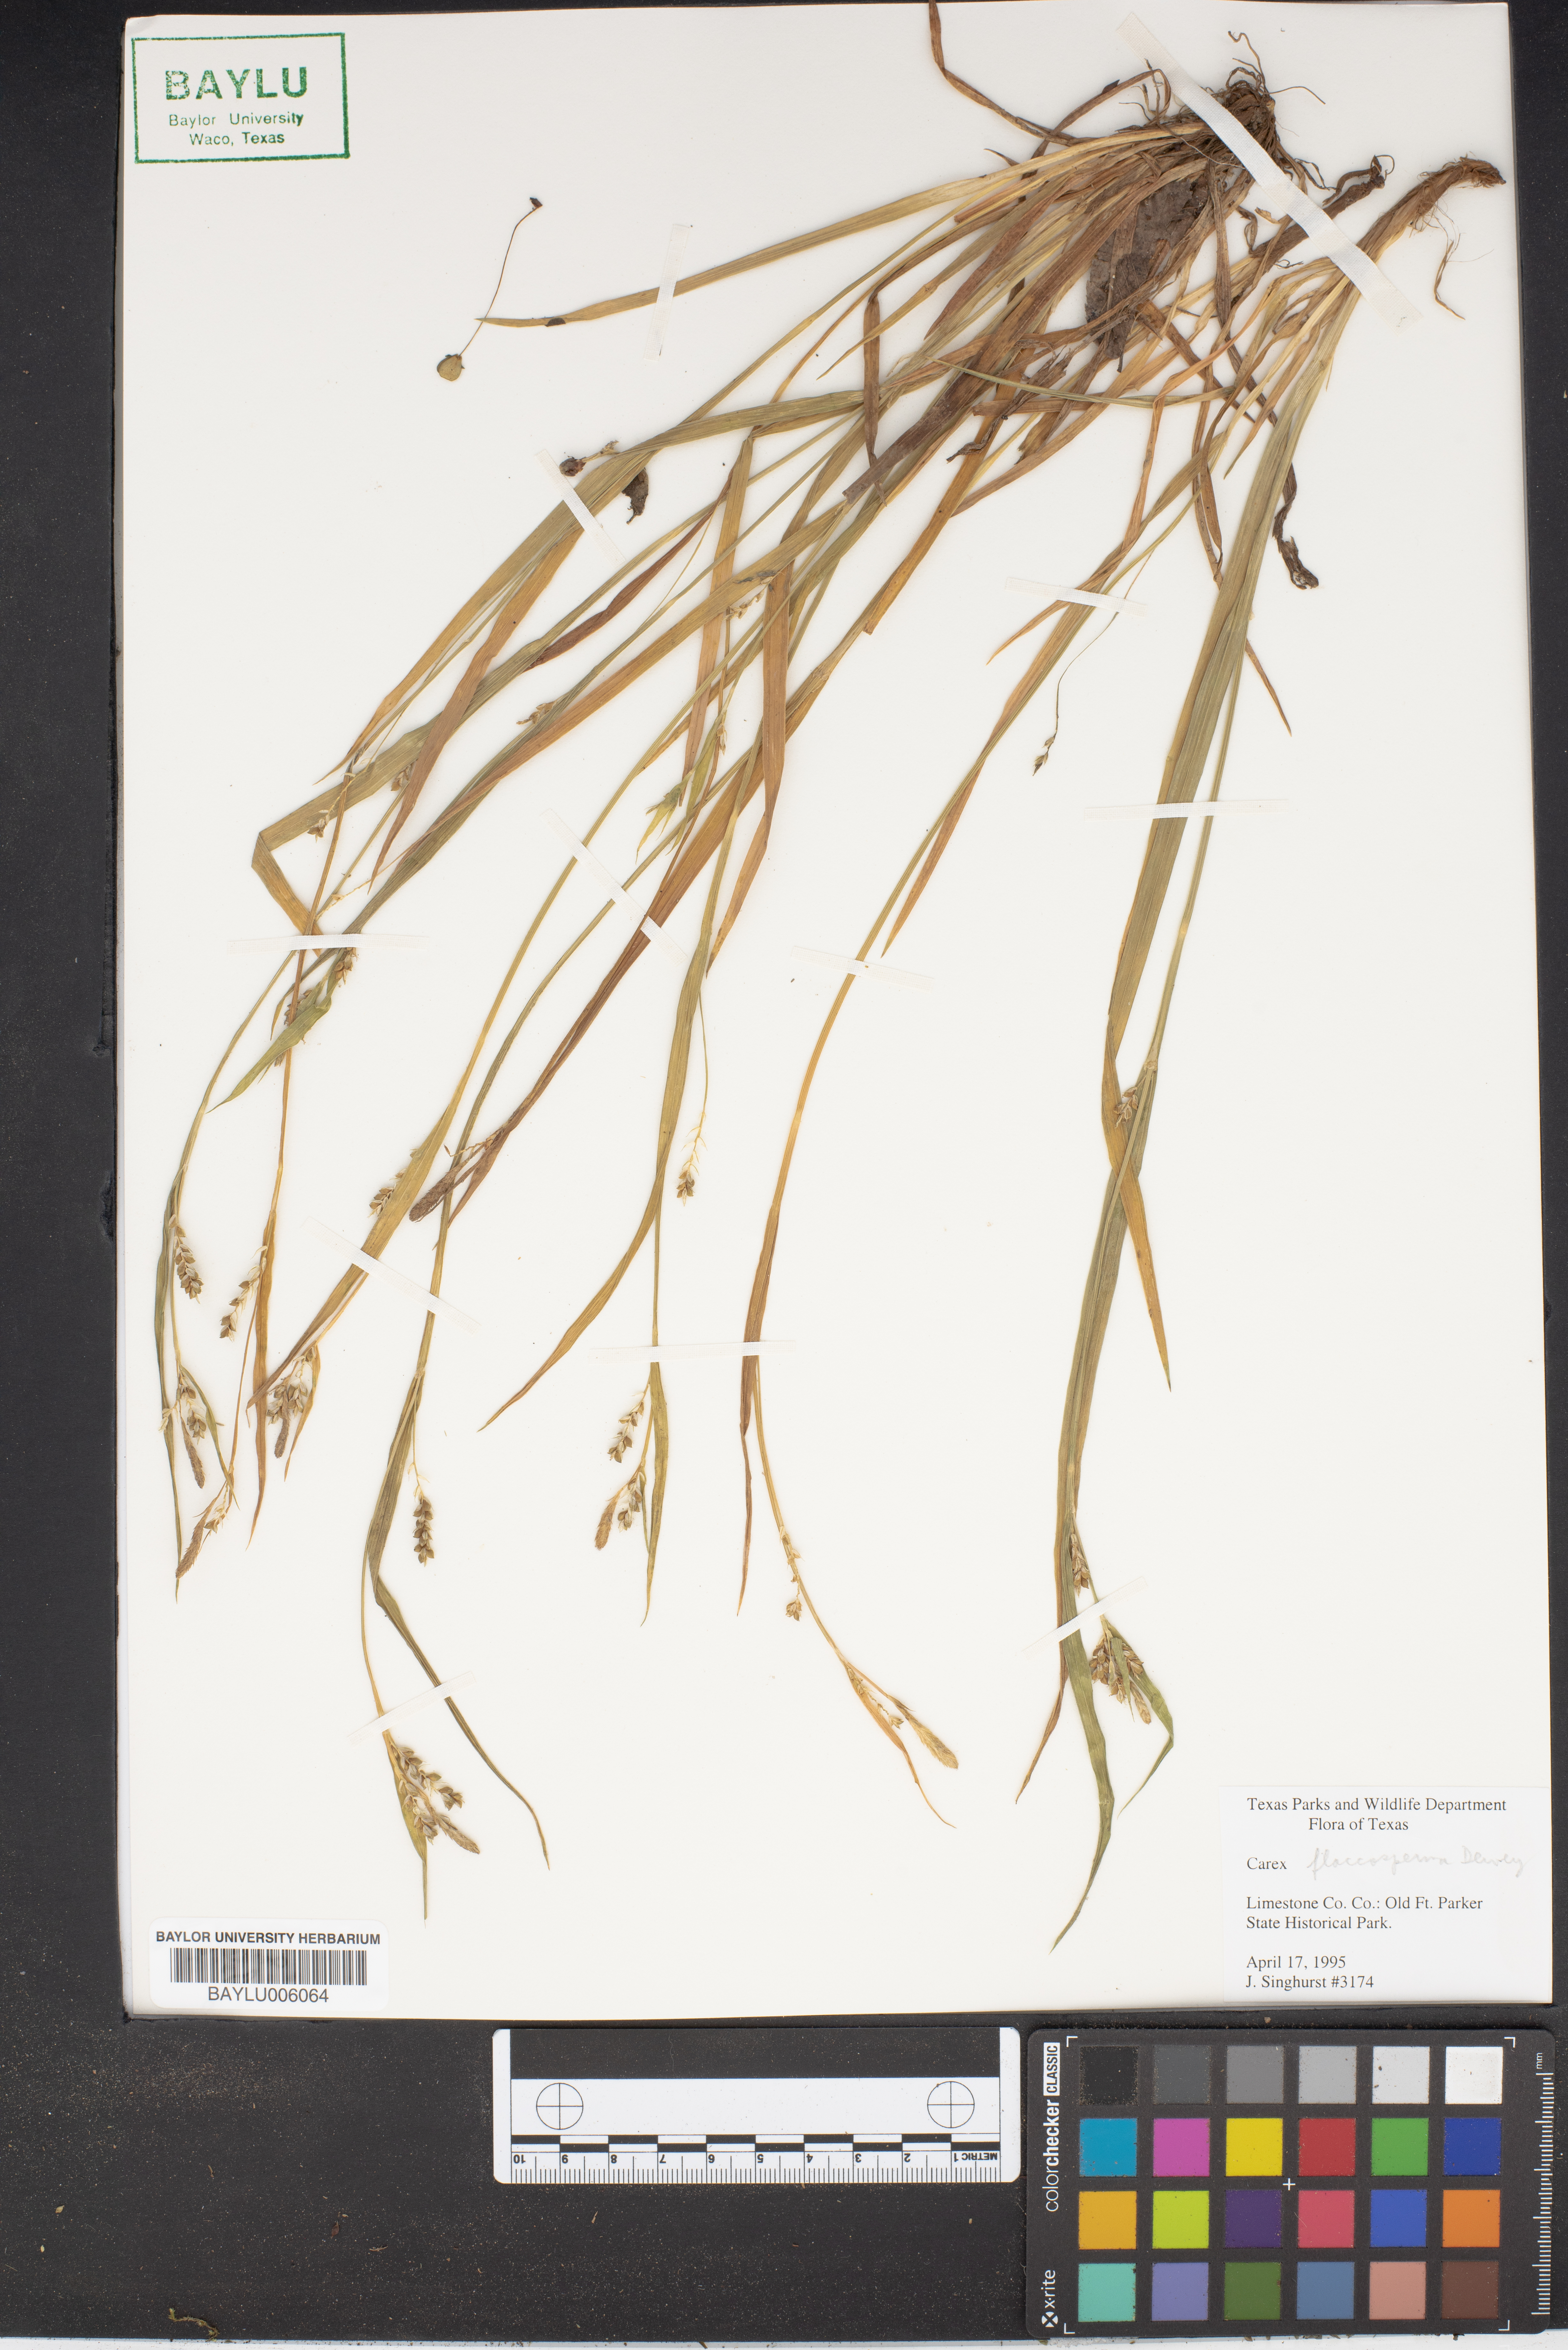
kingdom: Plantae
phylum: Tracheophyta
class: Liliopsida
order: Poales
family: Cyperaceae
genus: Carex
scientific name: Carex flaccosperma
